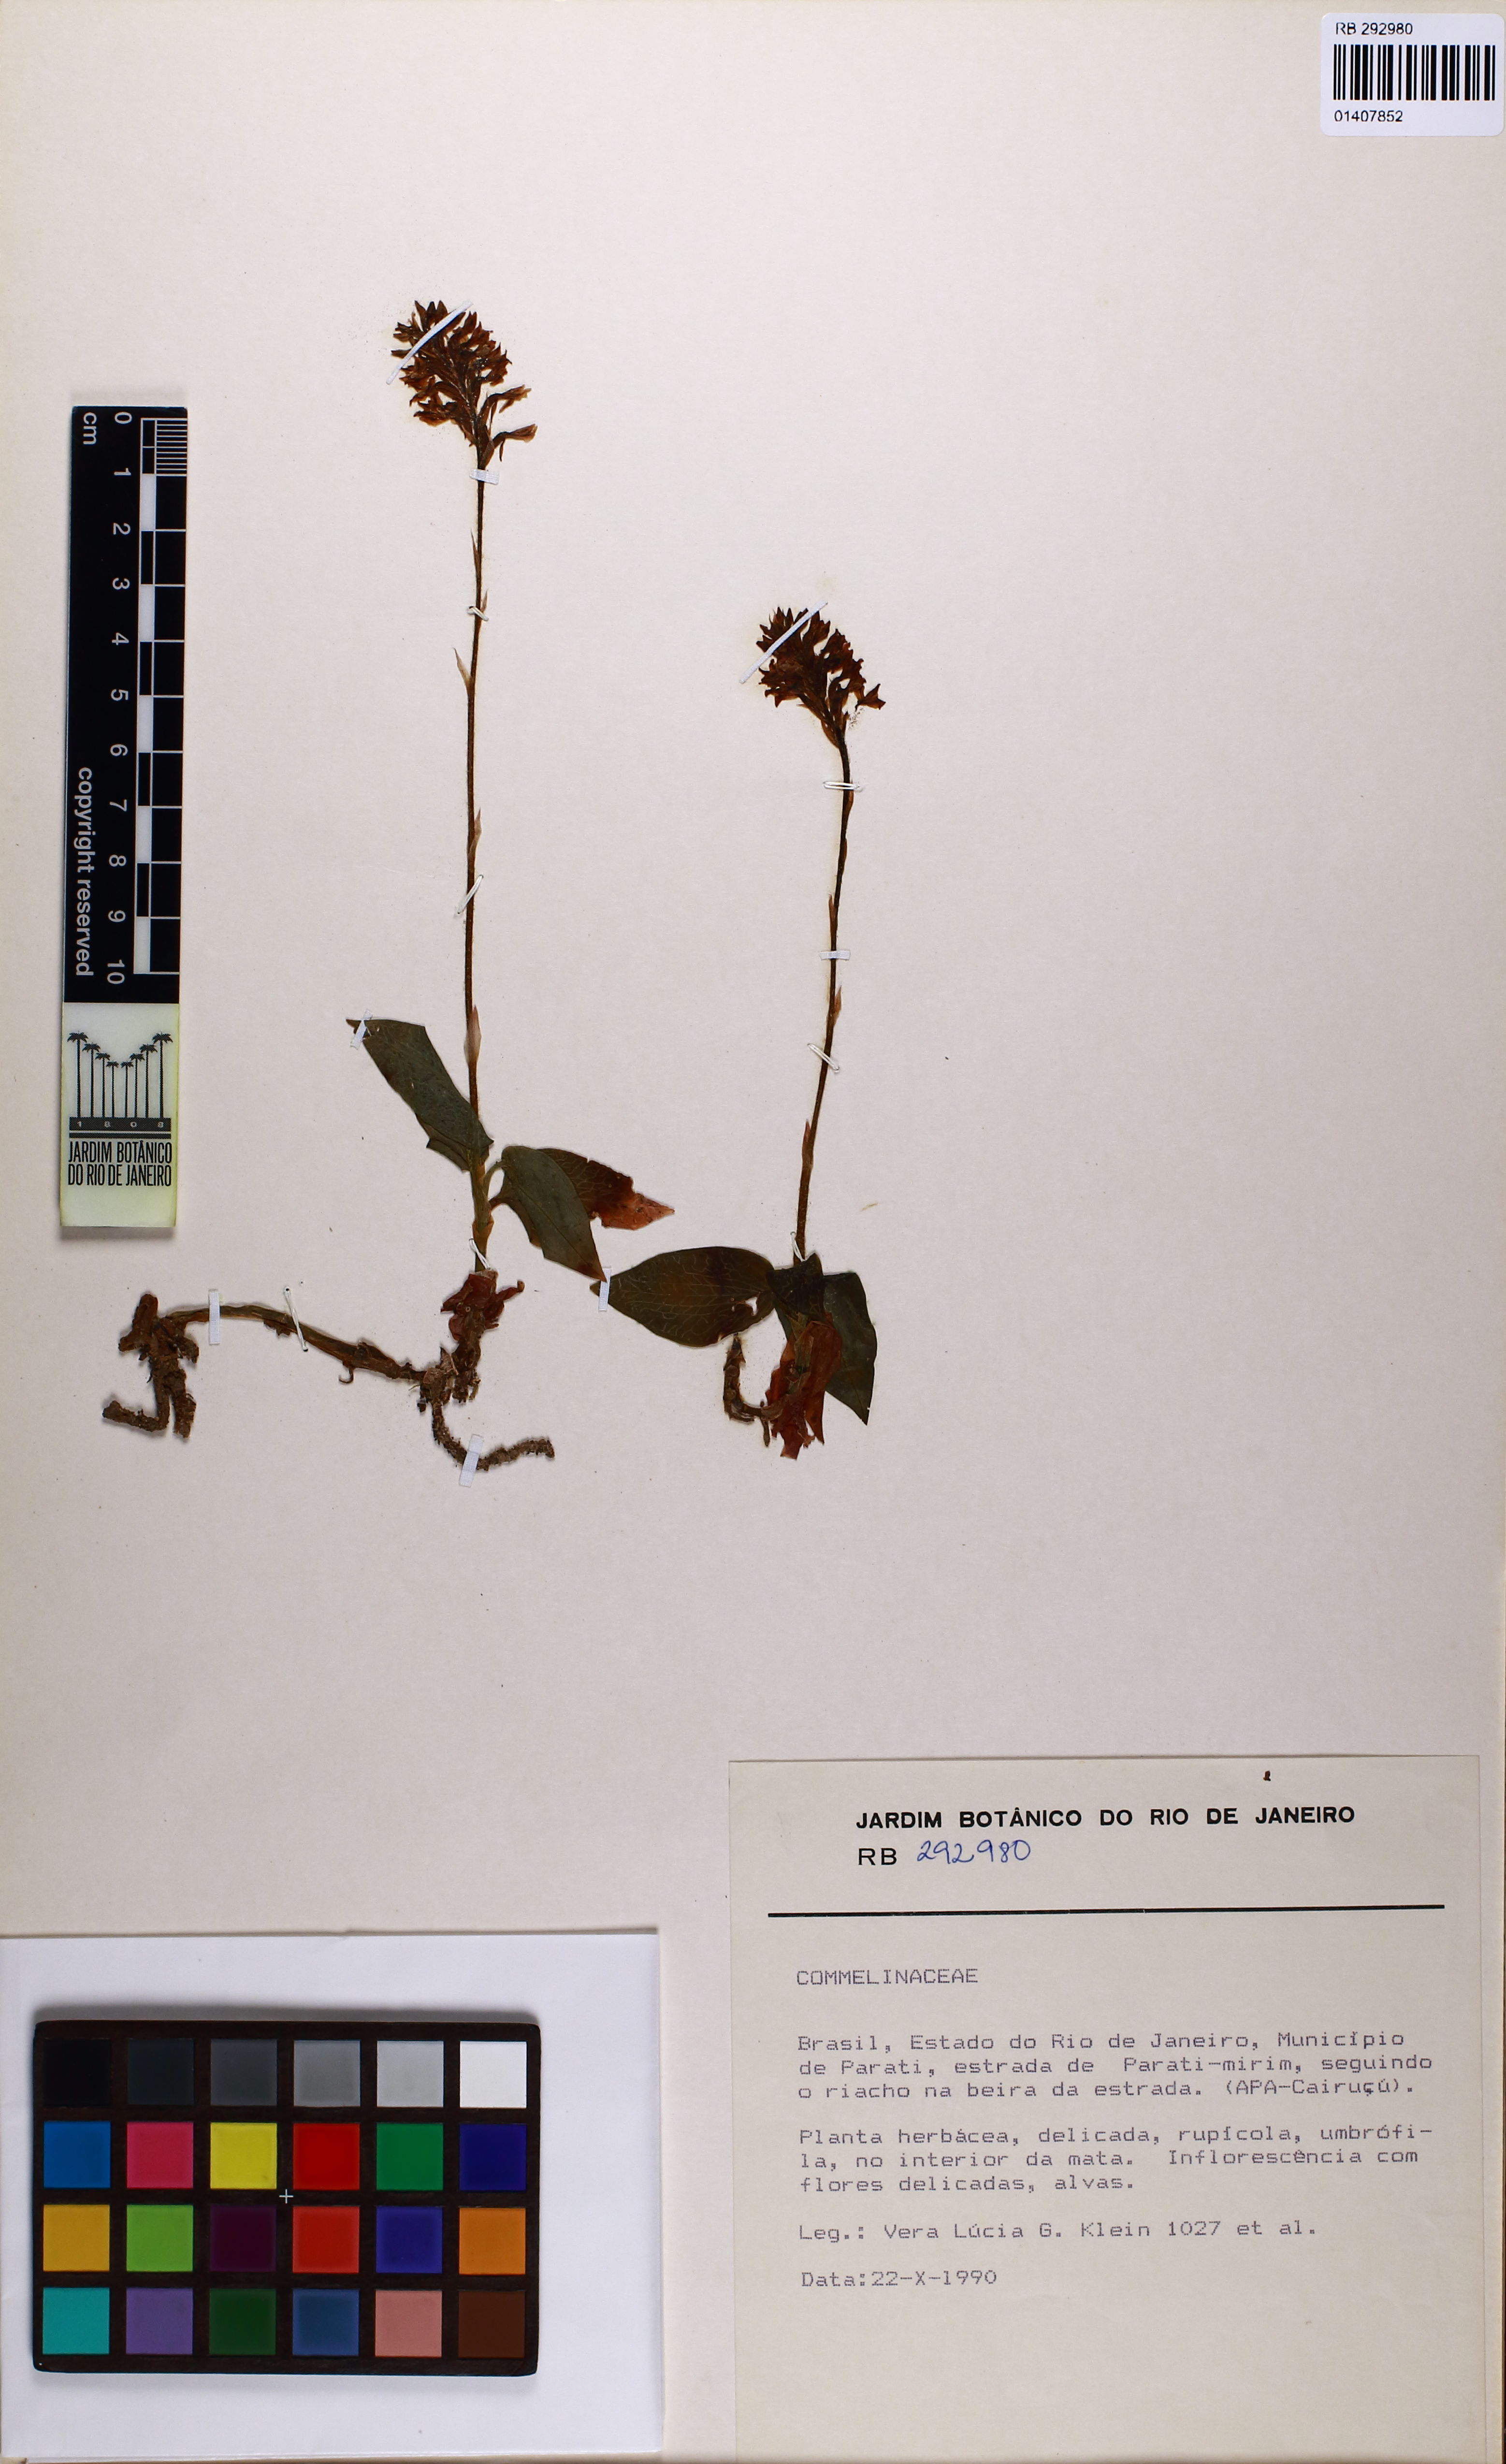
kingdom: Plantae
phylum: Tracheophyta
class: Liliopsida
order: Asparagales
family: Orchidaceae
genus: Aspidogyne
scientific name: Aspidogyne
